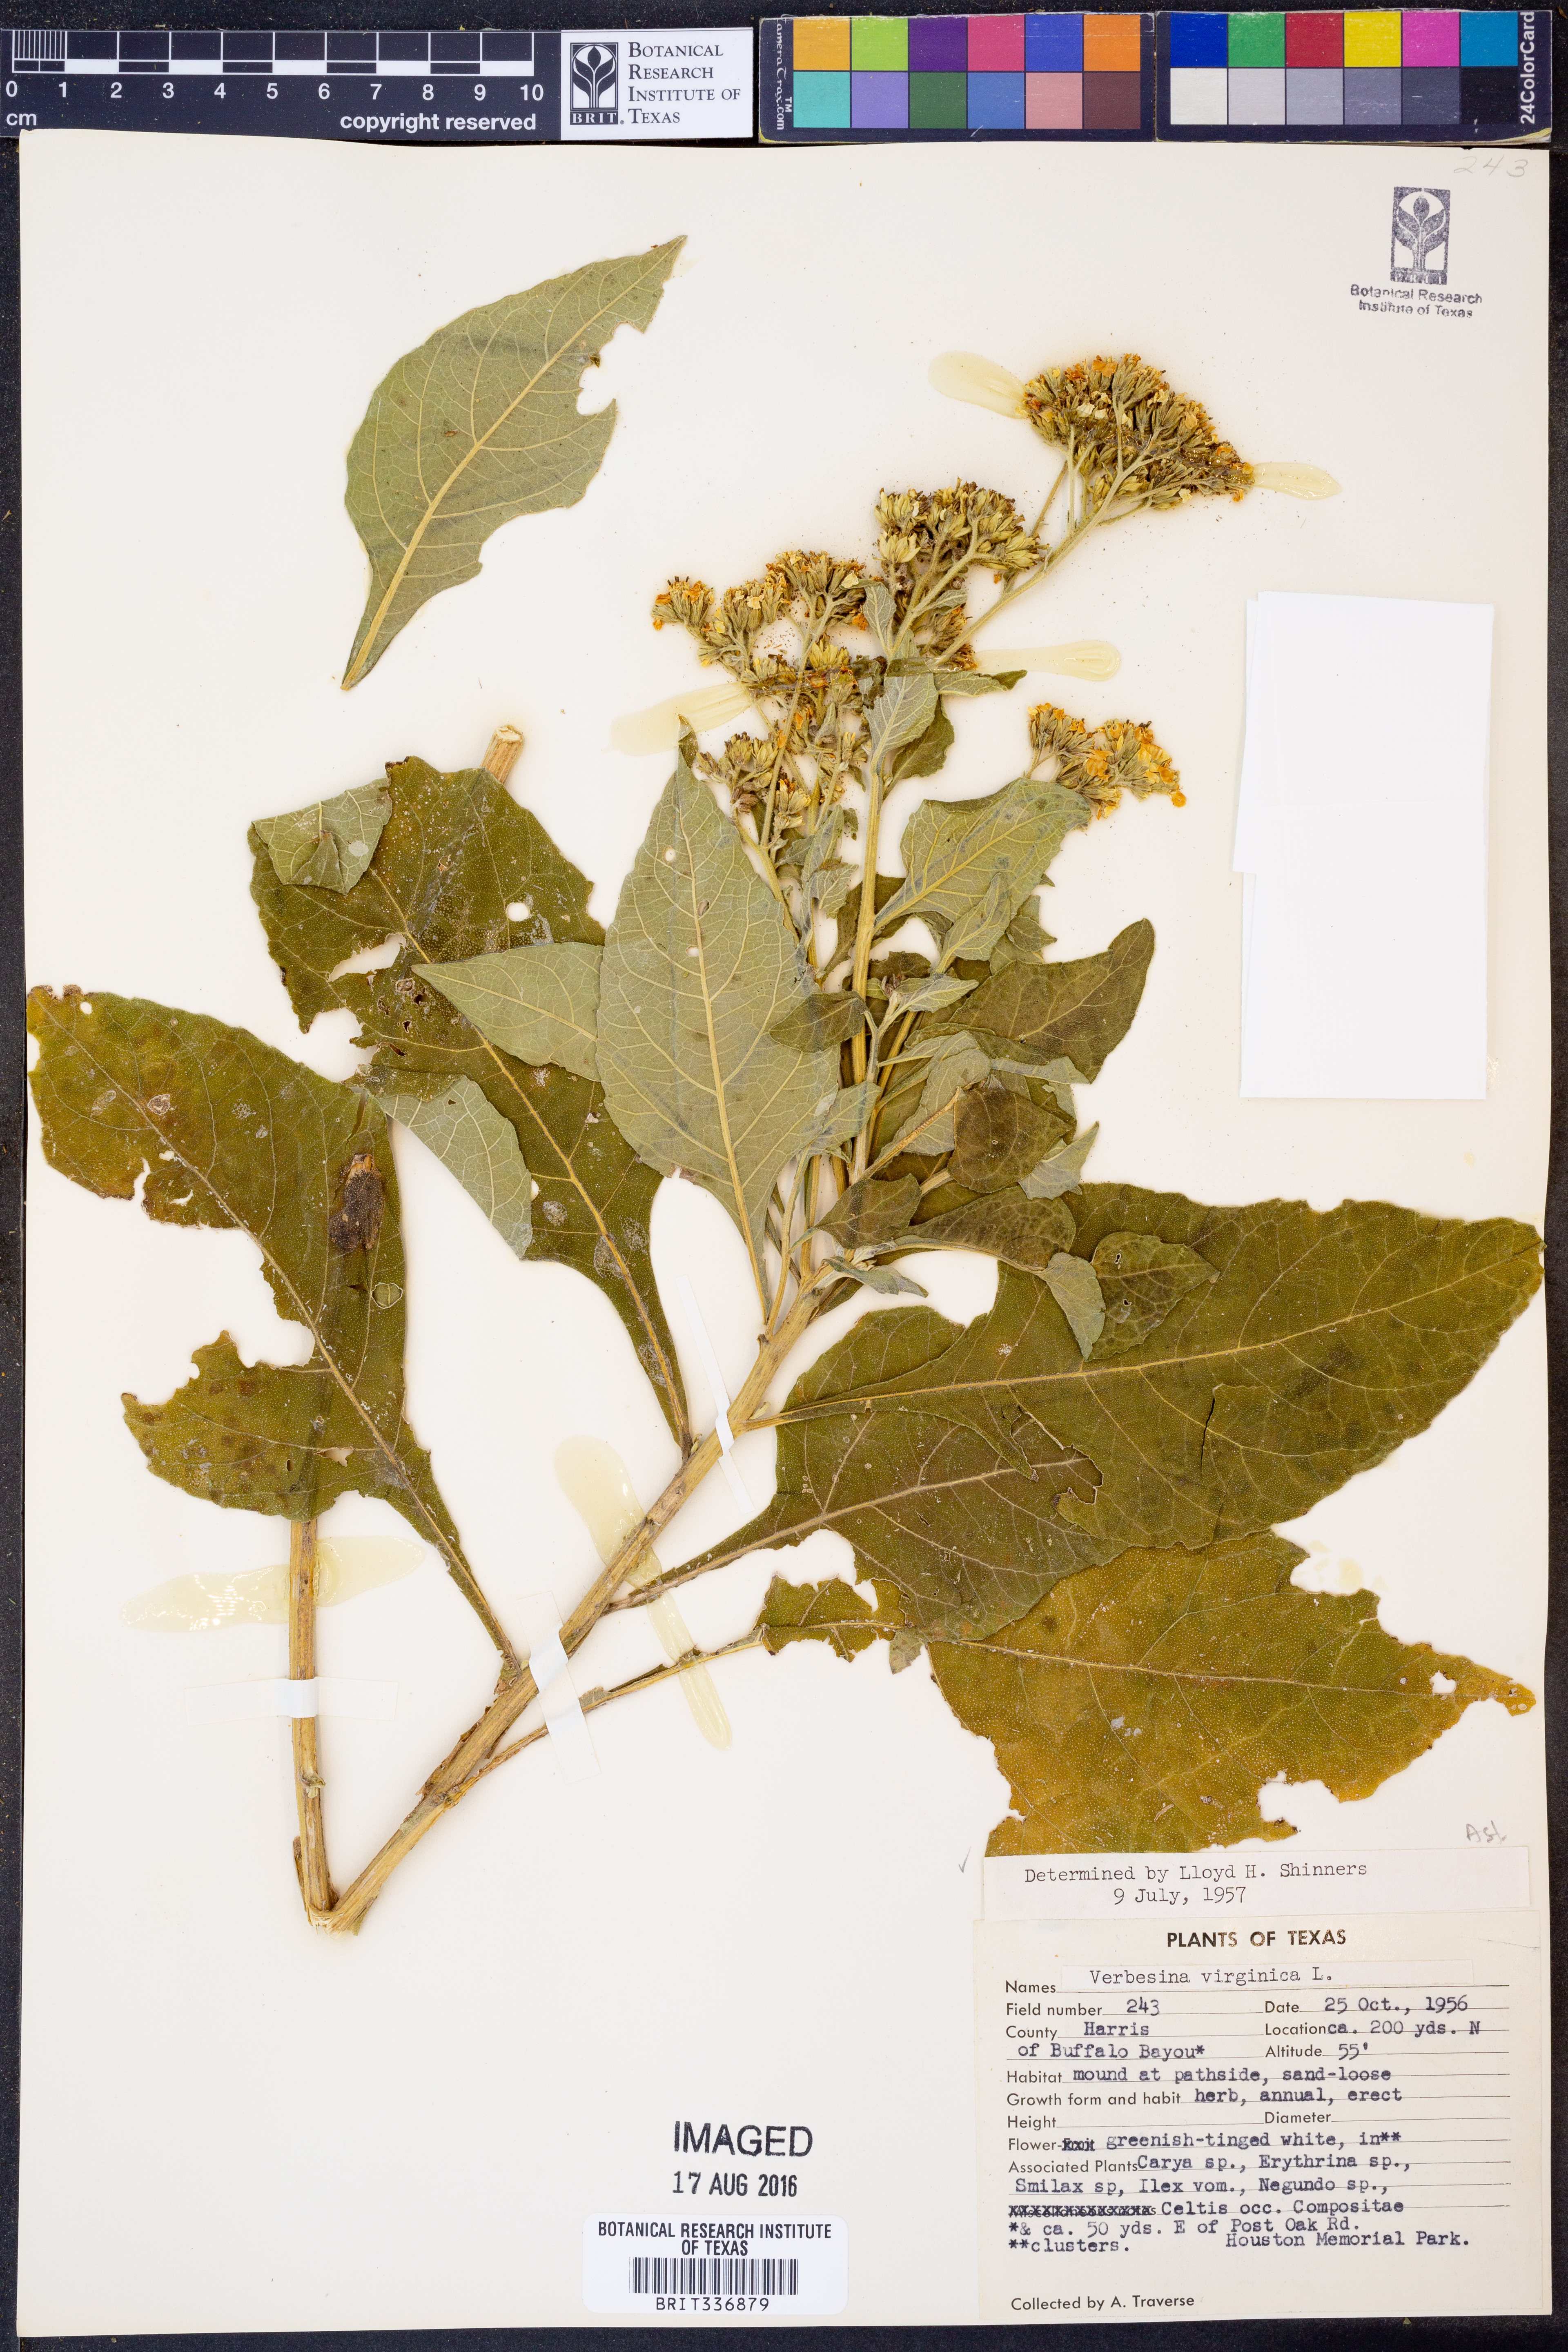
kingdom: Plantae
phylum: Tracheophyta
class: Magnoliopsida
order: Asterales
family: Asteraceae
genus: Verbesina
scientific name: Verbesina virginica
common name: Frostweed
